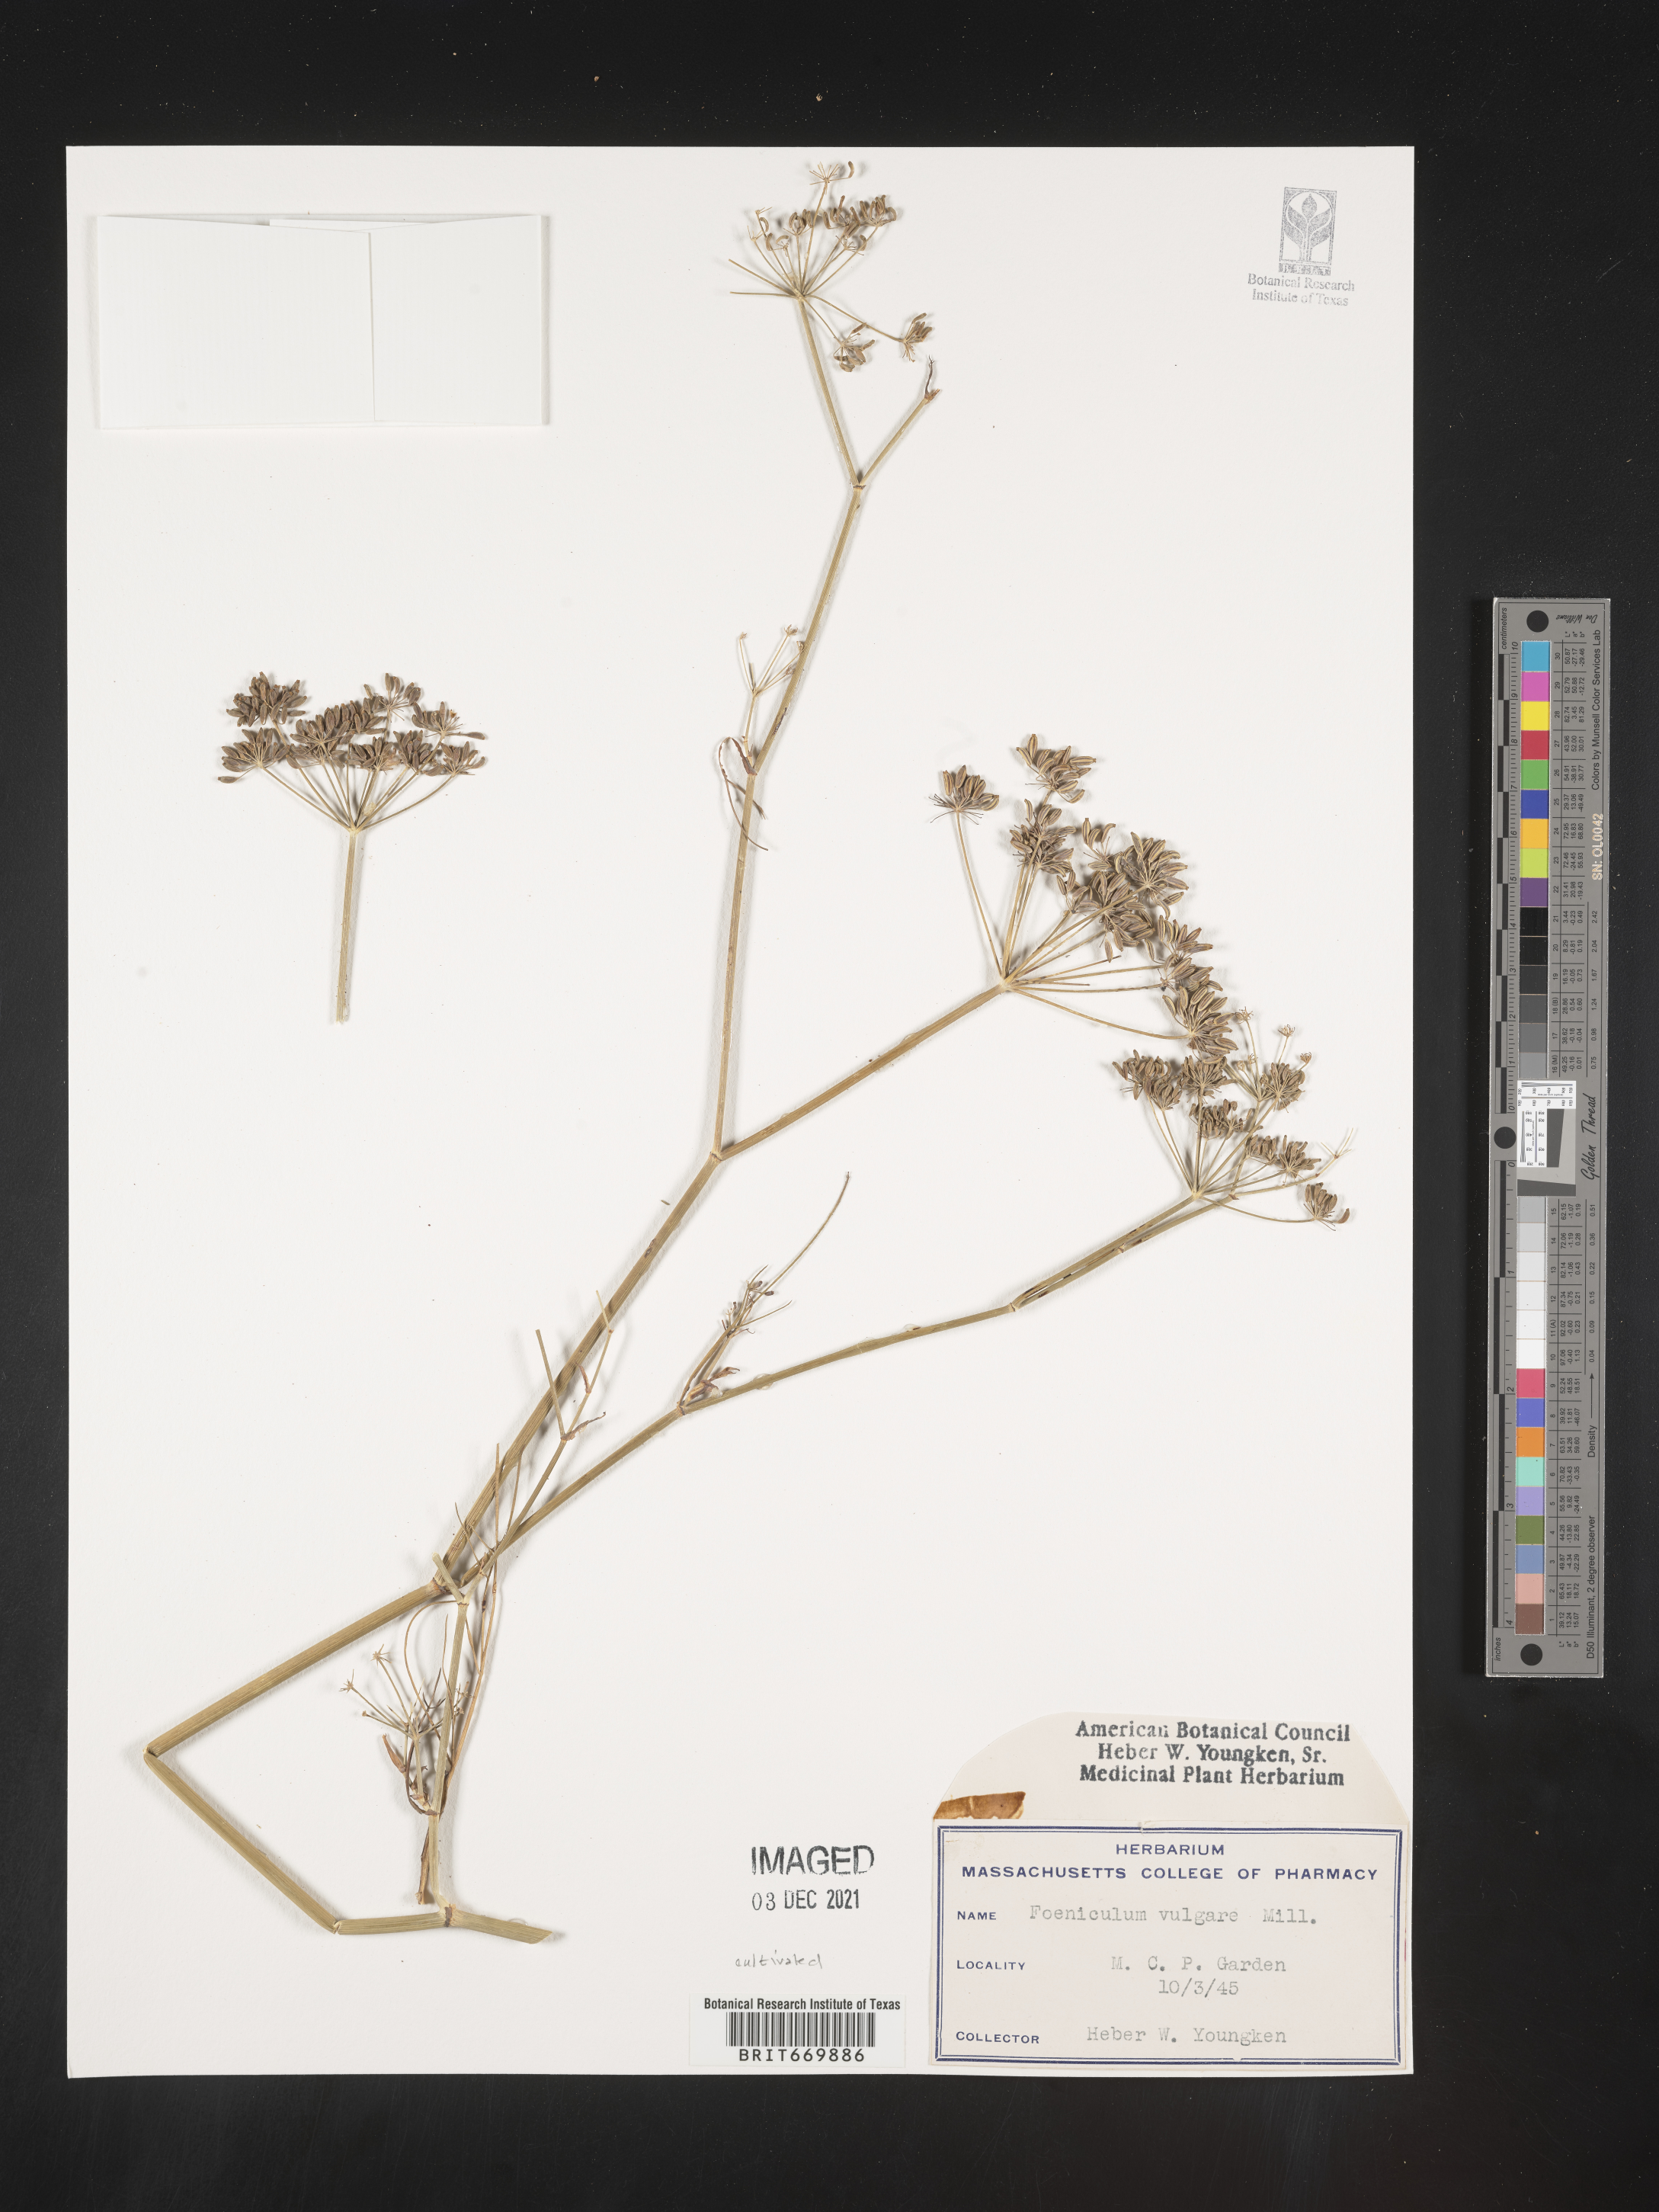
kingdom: Plantae
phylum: Tracheophyta
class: Magnoliopsida
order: Apiales
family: Apiaceae
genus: Foeniculum
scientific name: Foeniculum
